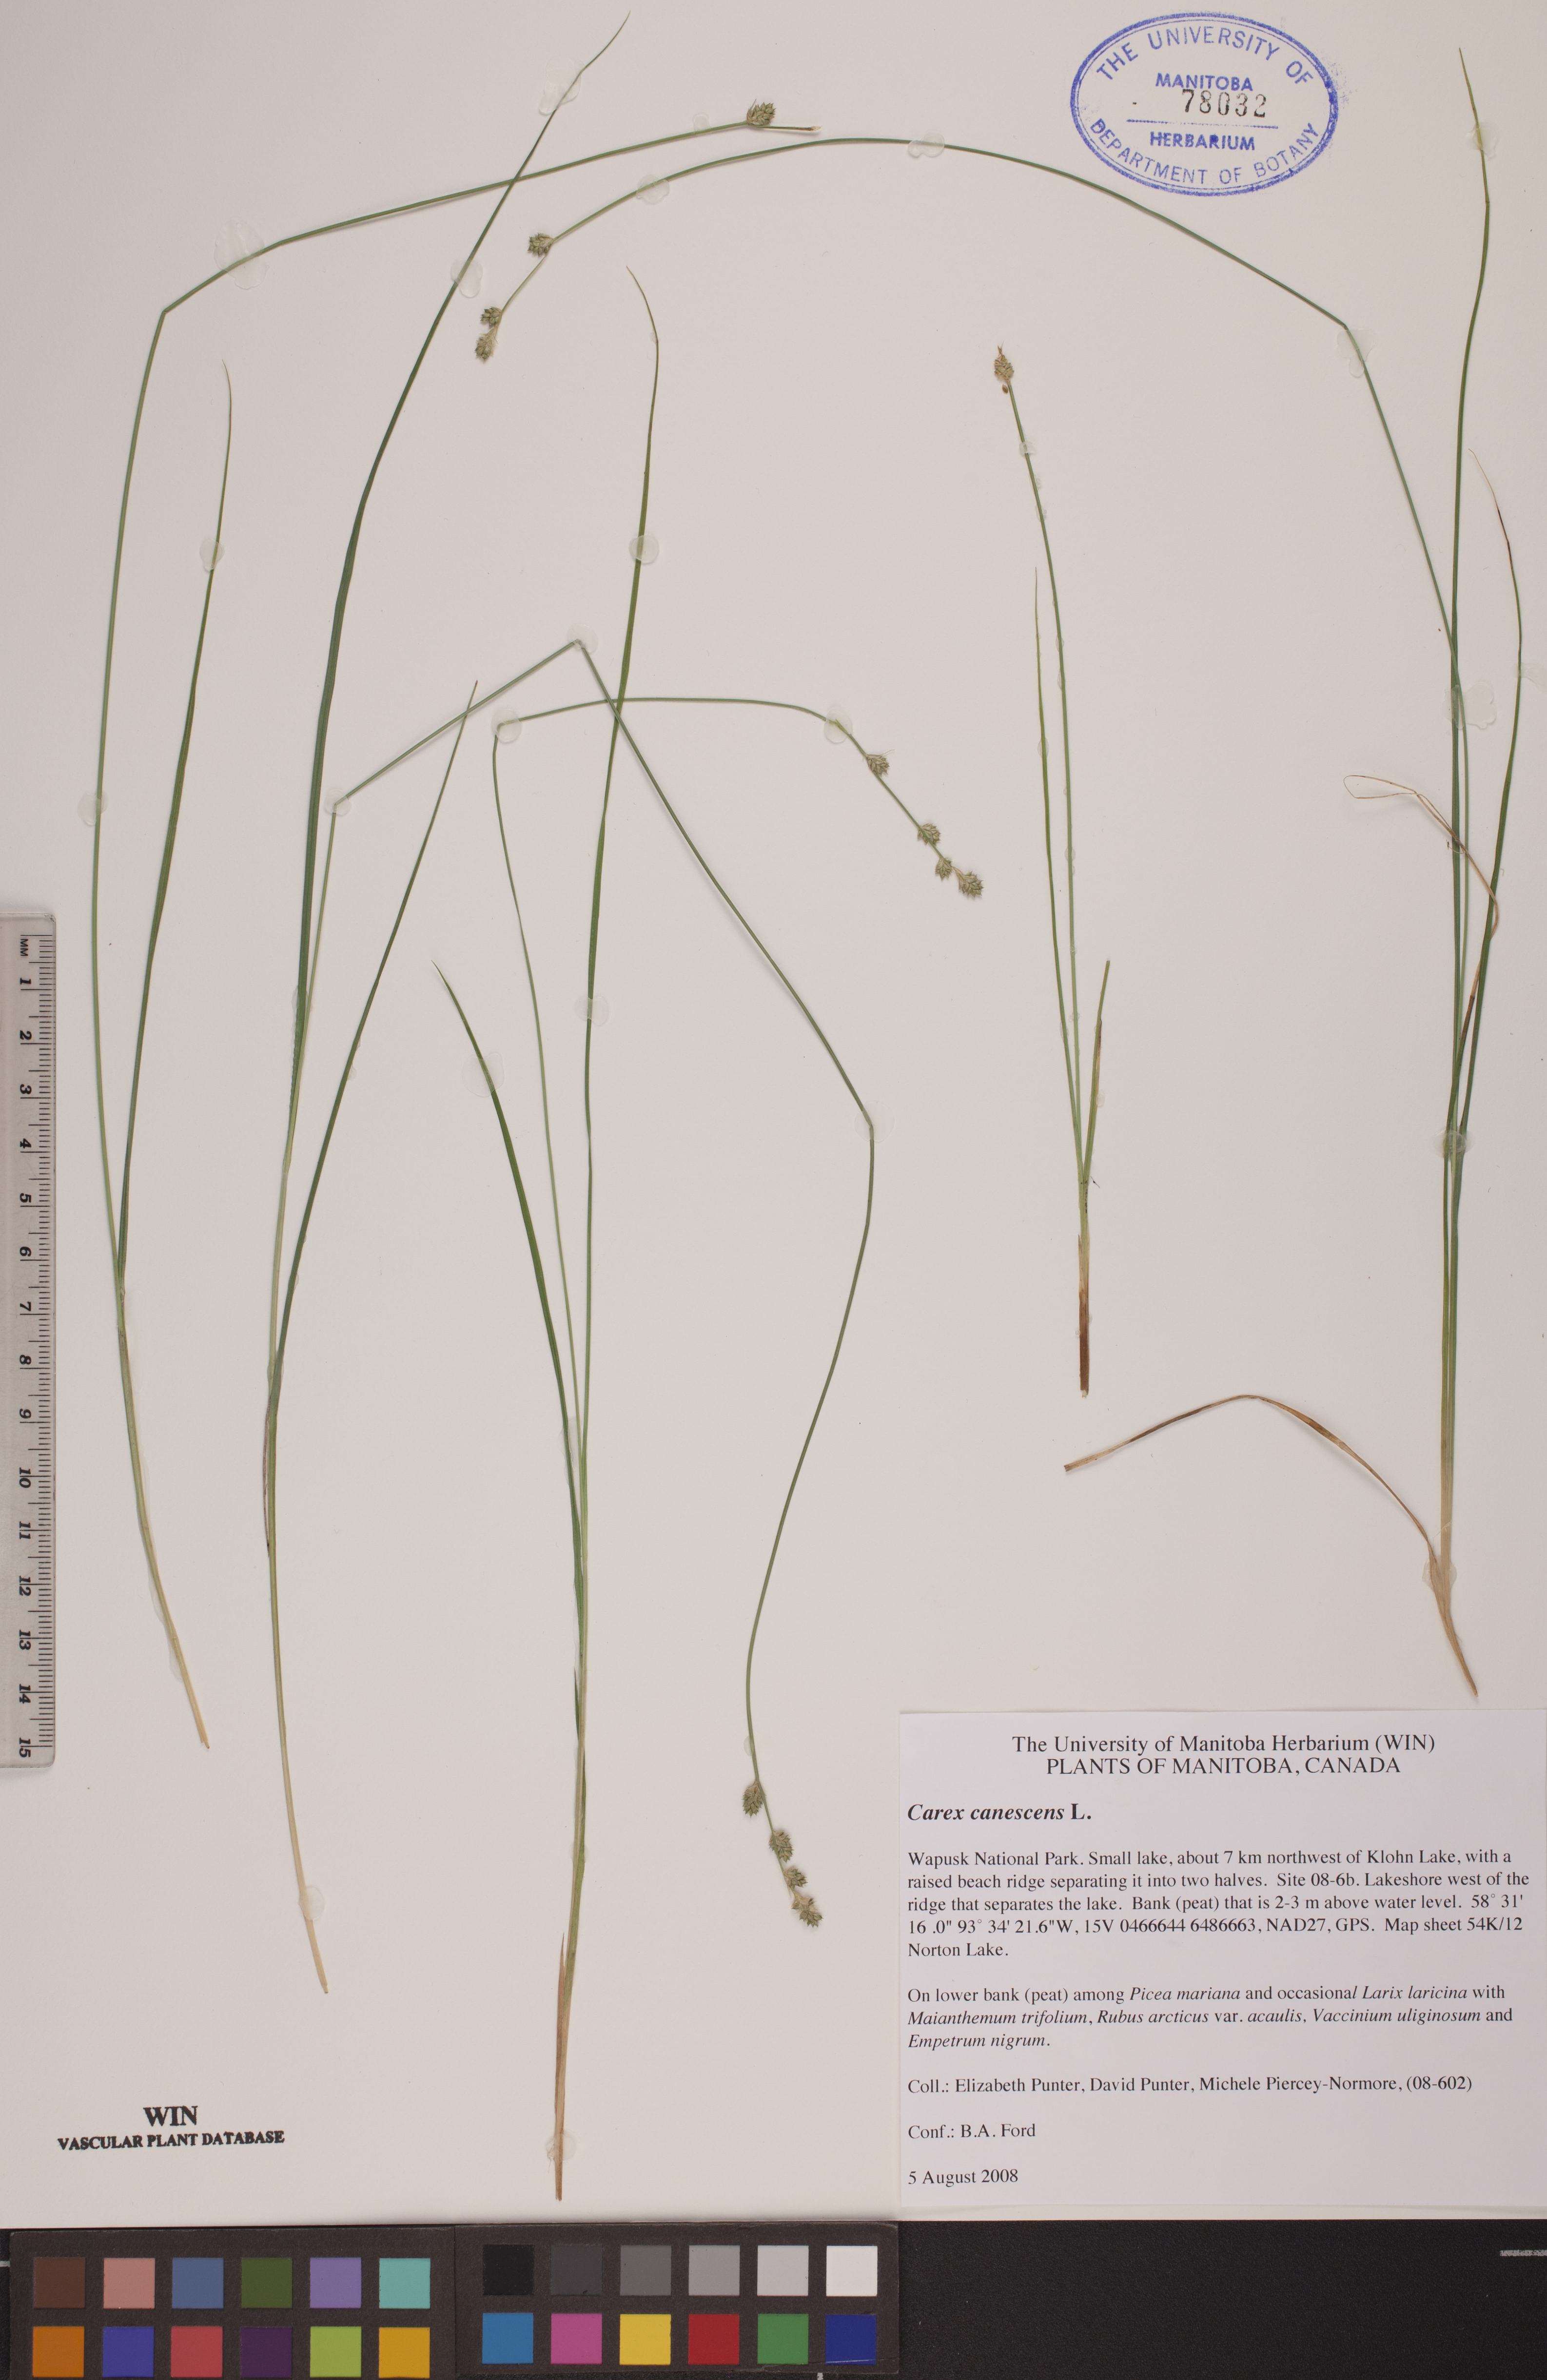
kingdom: Plantae
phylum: Tracheophyta
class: Liliopsida
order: Poales
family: Cyperaceae
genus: Carex
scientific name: Carex canescens
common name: White sedge
